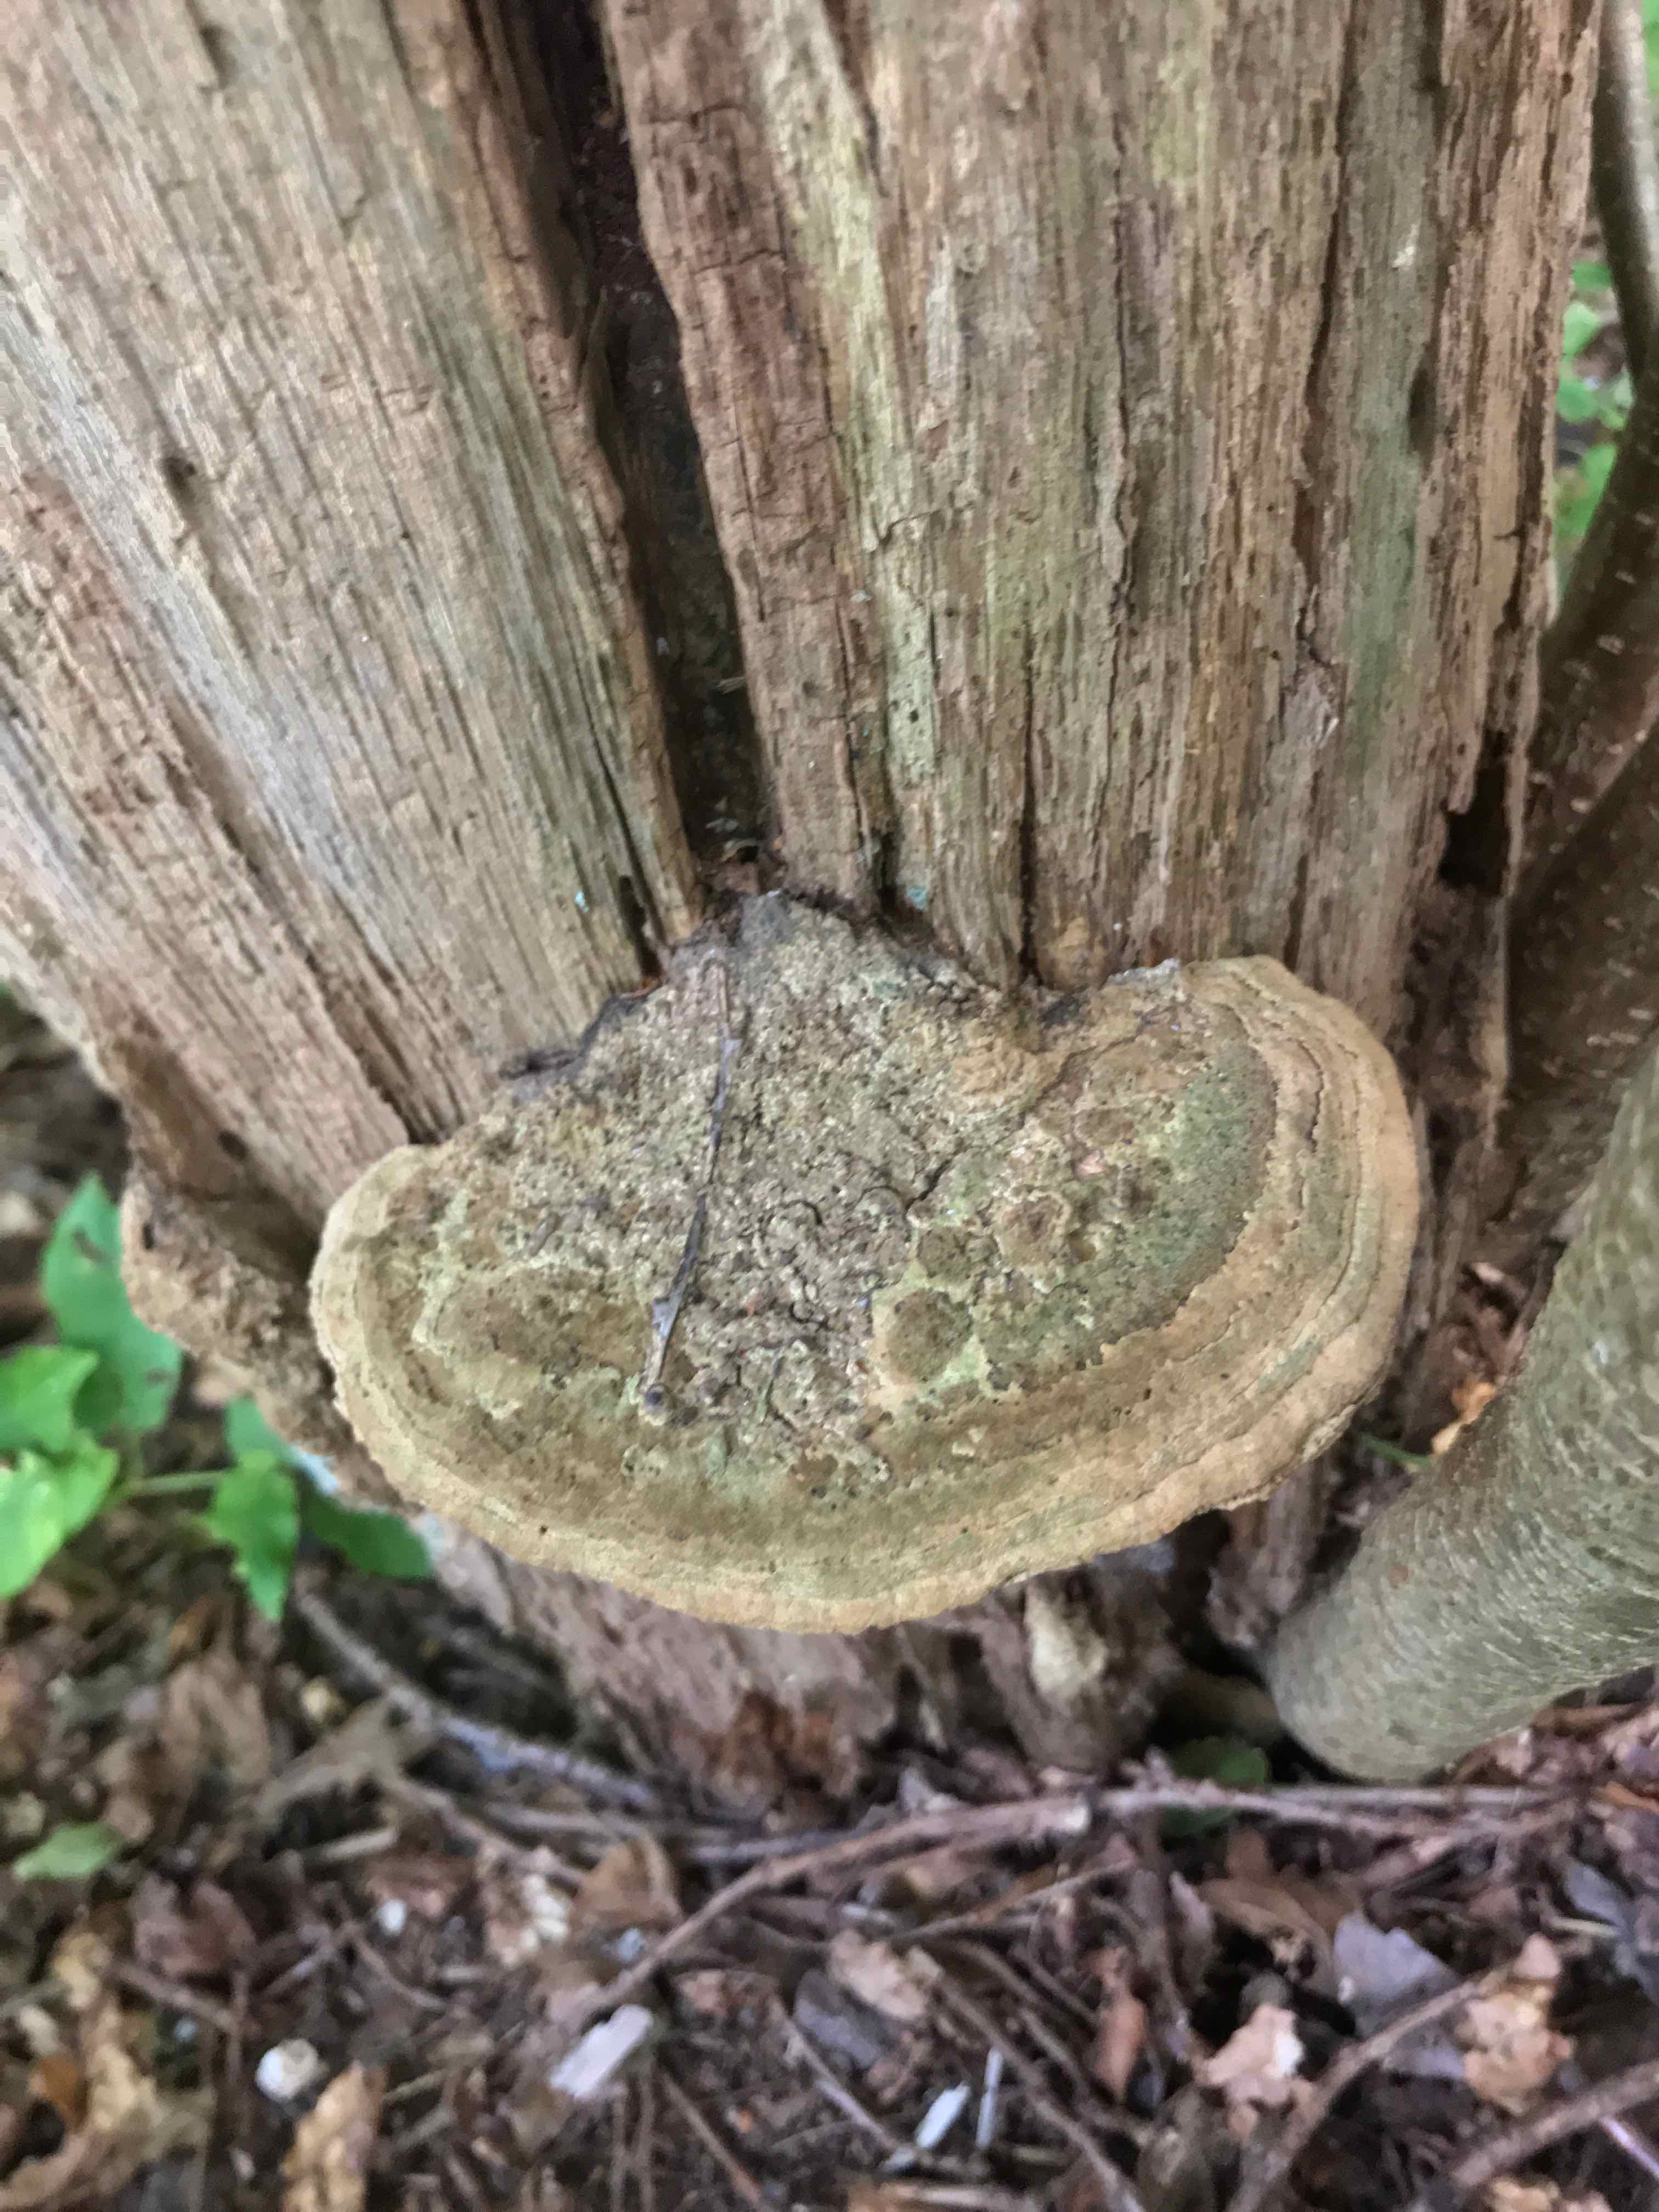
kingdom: Fungi
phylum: Basidiomycota
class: Agaricomycetes
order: Polyporales
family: Fomitopsidaceae
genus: Daedalea
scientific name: Daedalea quercina
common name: ege-labyrintsvamp
